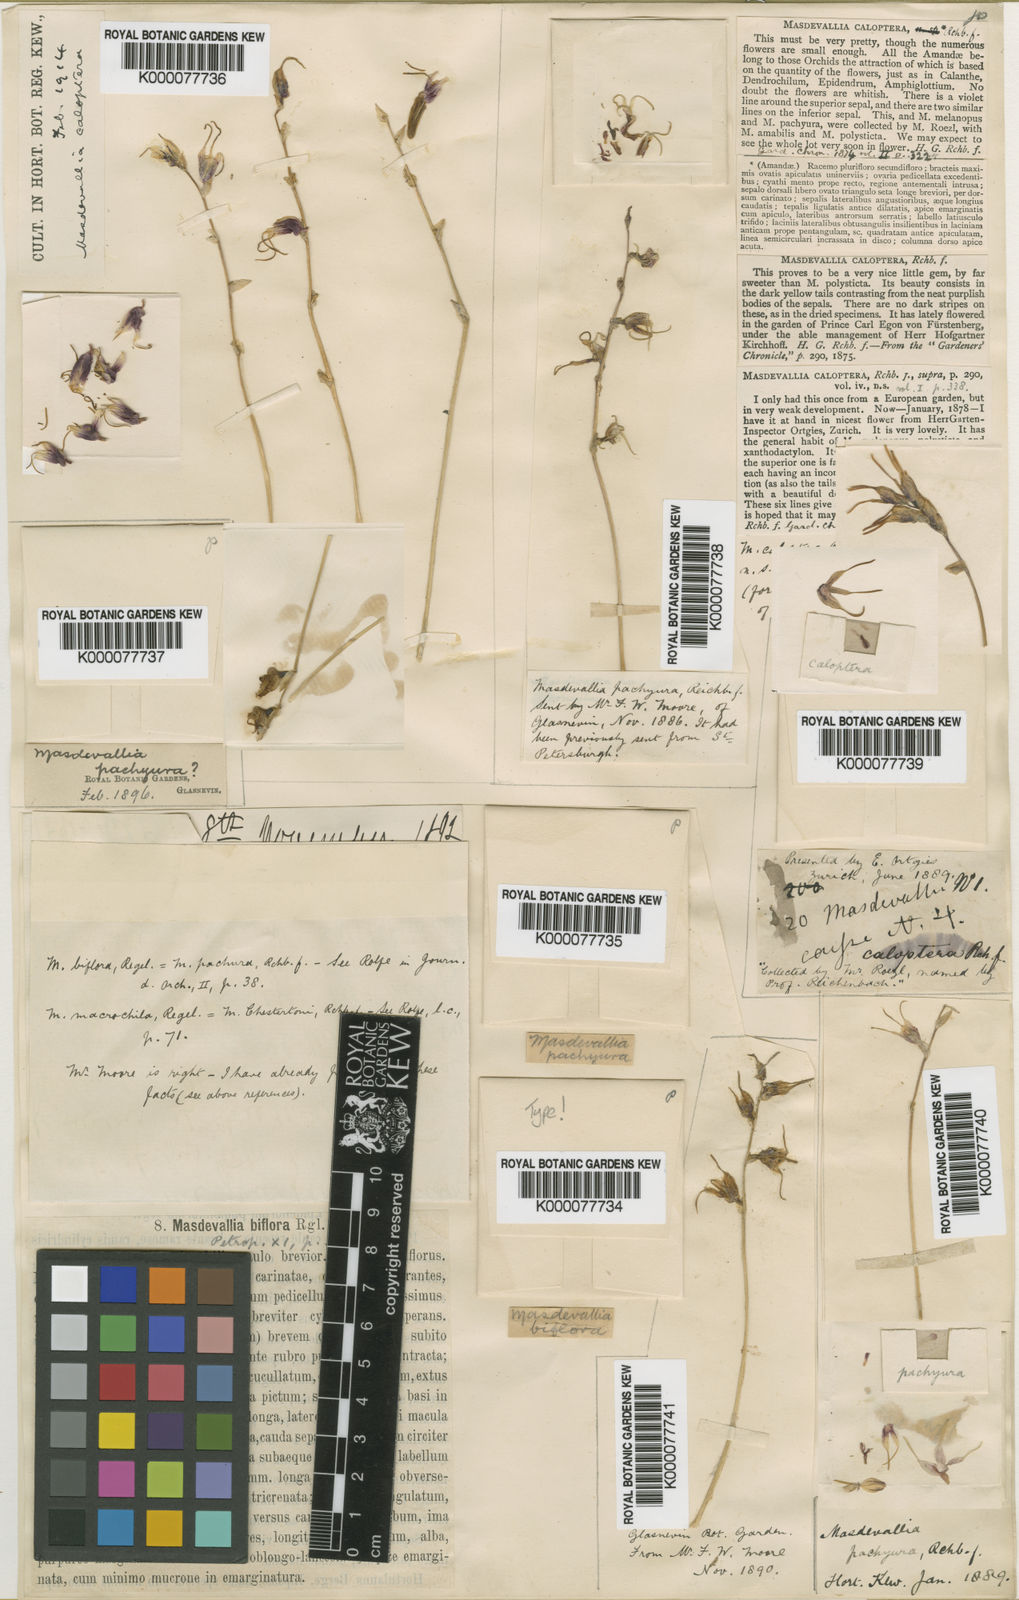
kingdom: Plantae
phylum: Tracheophyta
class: Liliopsida
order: Asparagales
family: Orchidaceae
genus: Masdevallia
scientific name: Masdevallia caloptera
